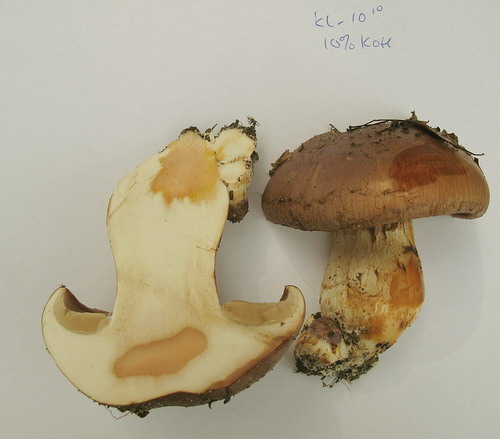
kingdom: Fungi
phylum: Basidiomycota
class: Agaricomycetes
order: Agaricales
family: Cortinariaceae
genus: Phlegmacium
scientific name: Phlegmacium balteatocumatile
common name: violettrådet slørhat
